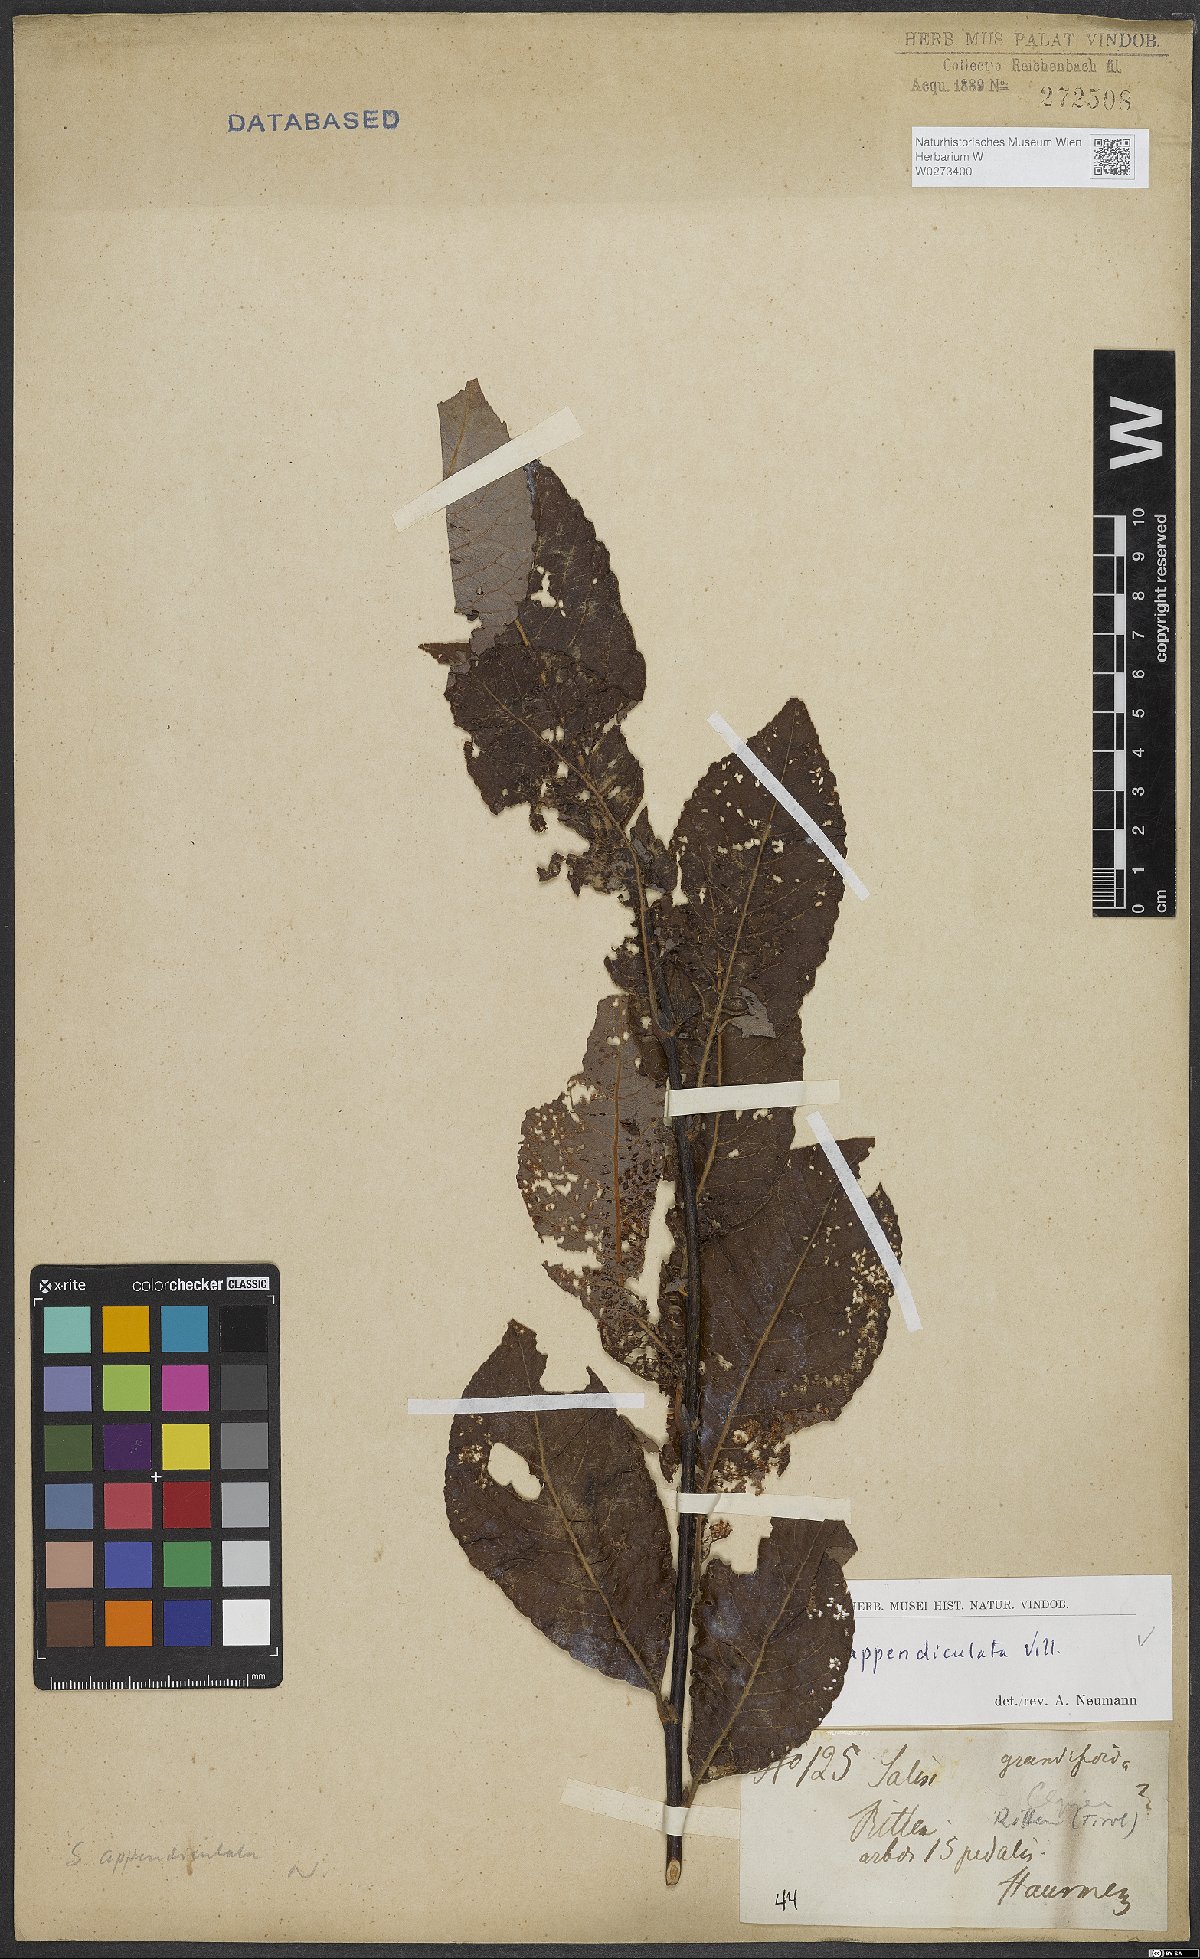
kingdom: Plantae
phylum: Tracheophyta
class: Magnoliopsida
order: Malpighiales
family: Salicaceae
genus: Salix
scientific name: Salix appendiculata
